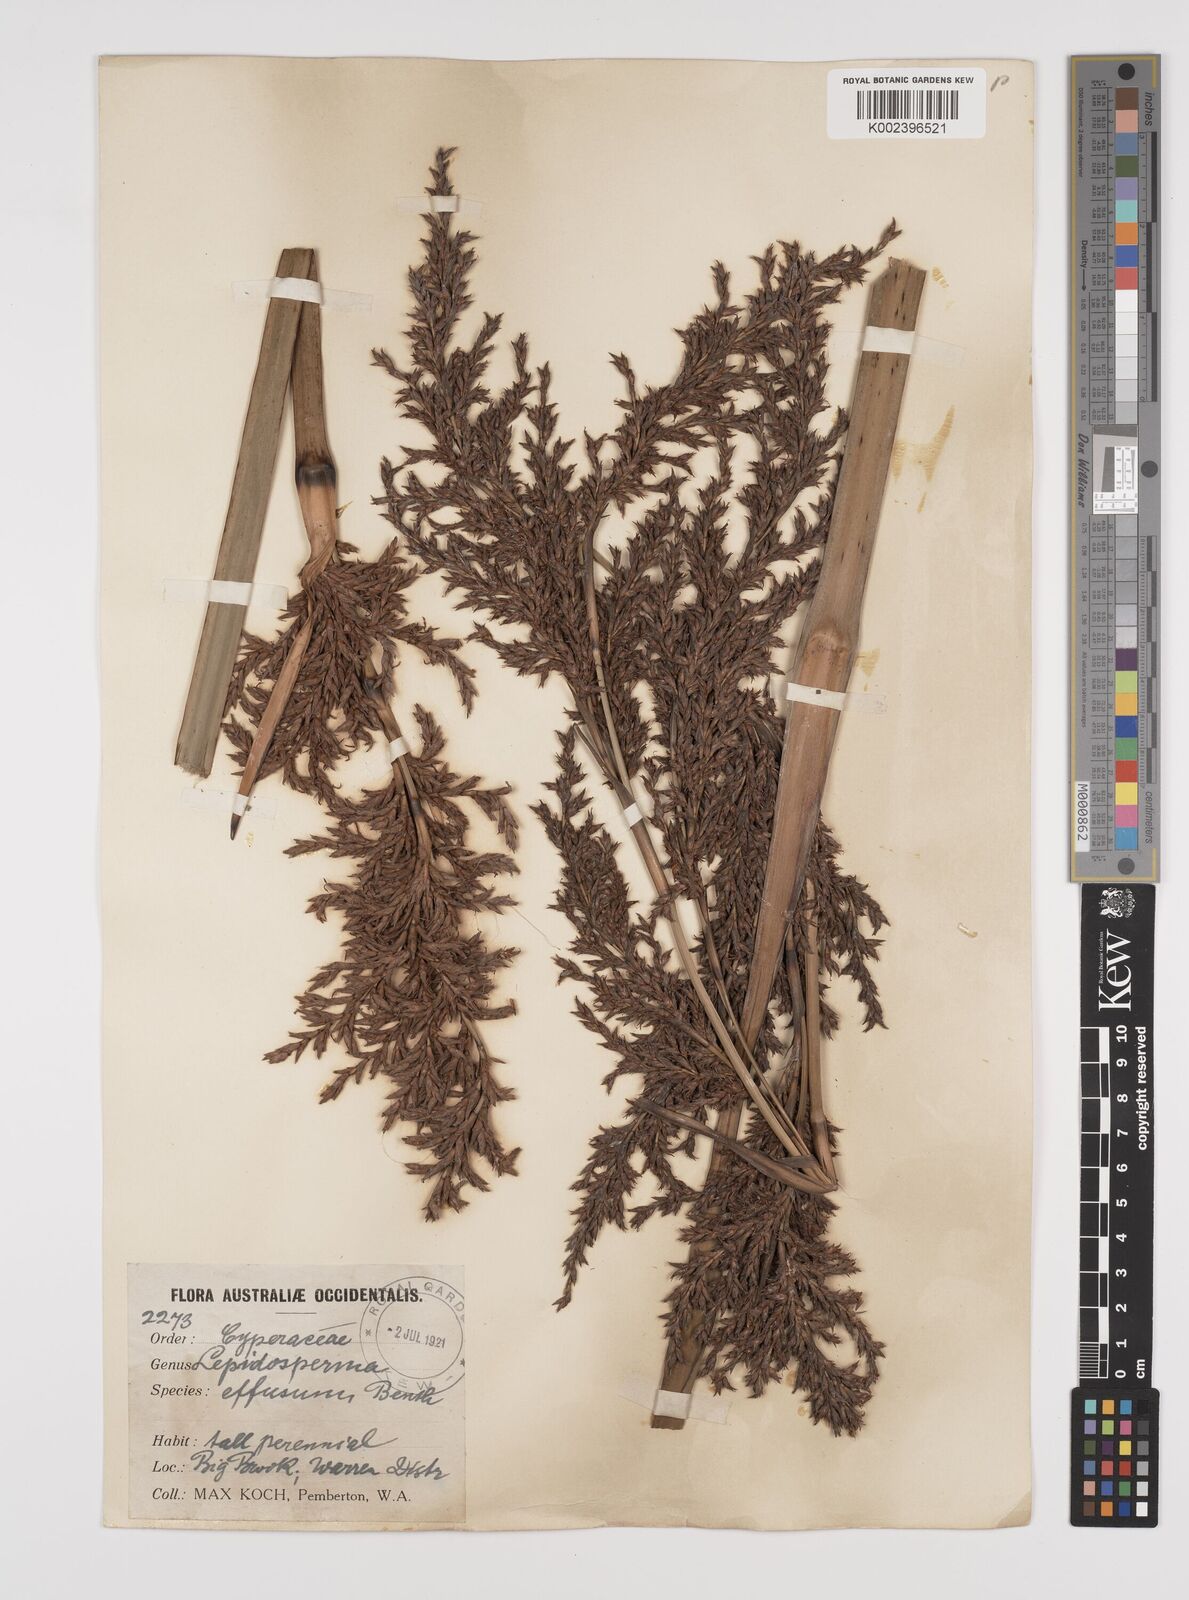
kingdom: Plantae
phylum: Tracheophyta
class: Liliopsida
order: Poales
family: Cyperaceae
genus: Lepidosperma
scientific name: Lepidosperma effusum
